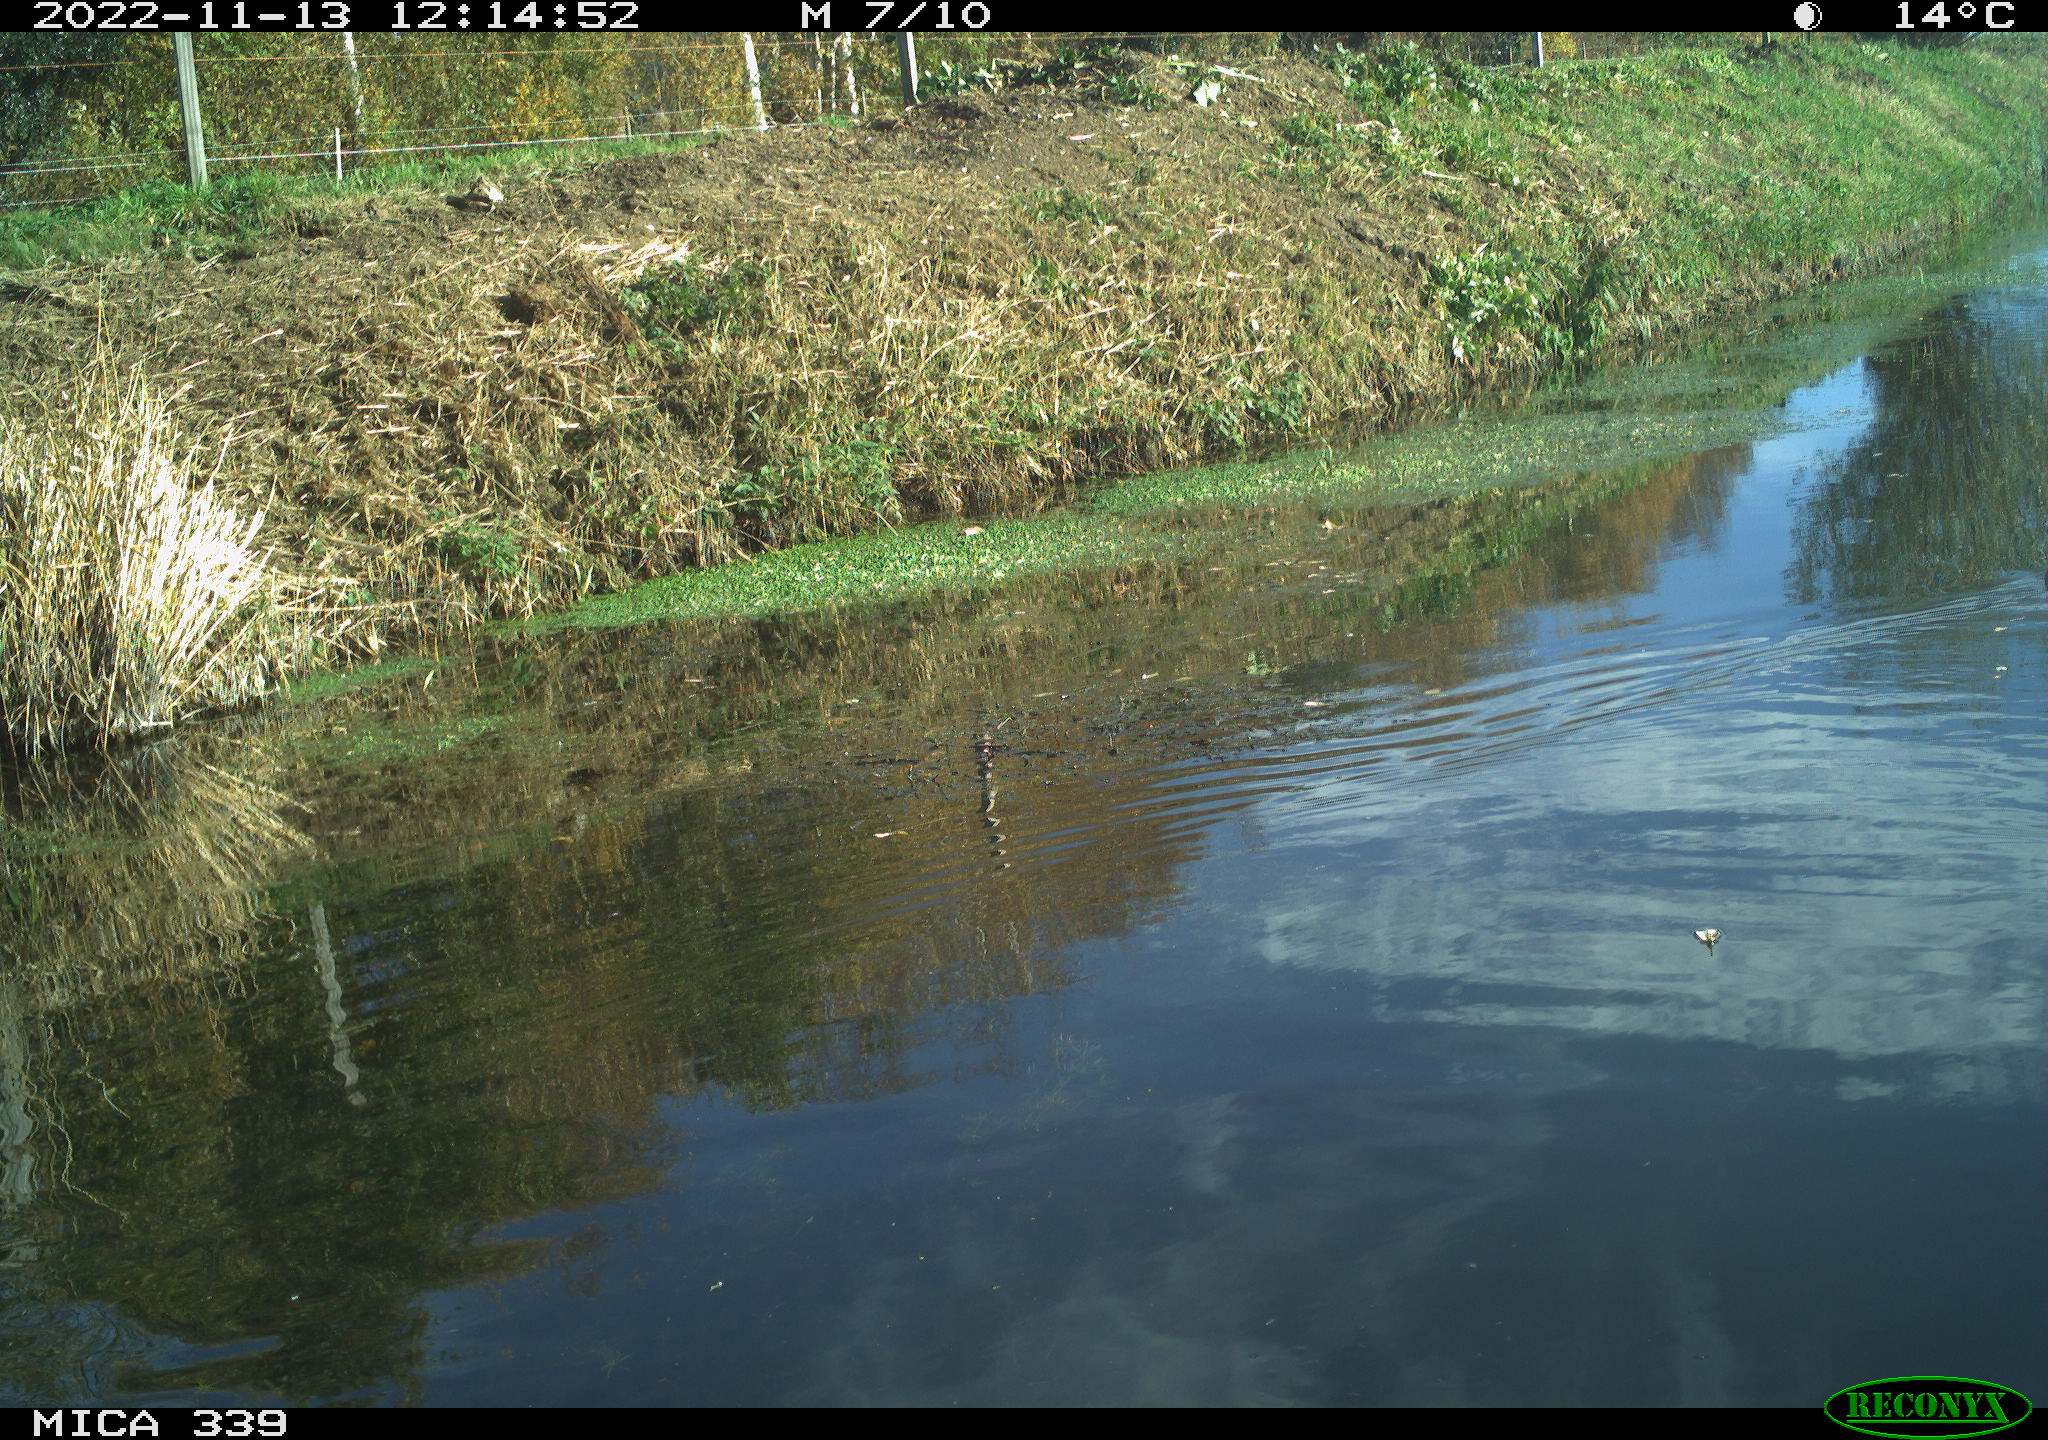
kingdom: Animalia
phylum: Chordata
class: Aves
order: Anseriformes
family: Anatidae
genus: Anas
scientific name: Anas platyrhynchos
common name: Mallard
